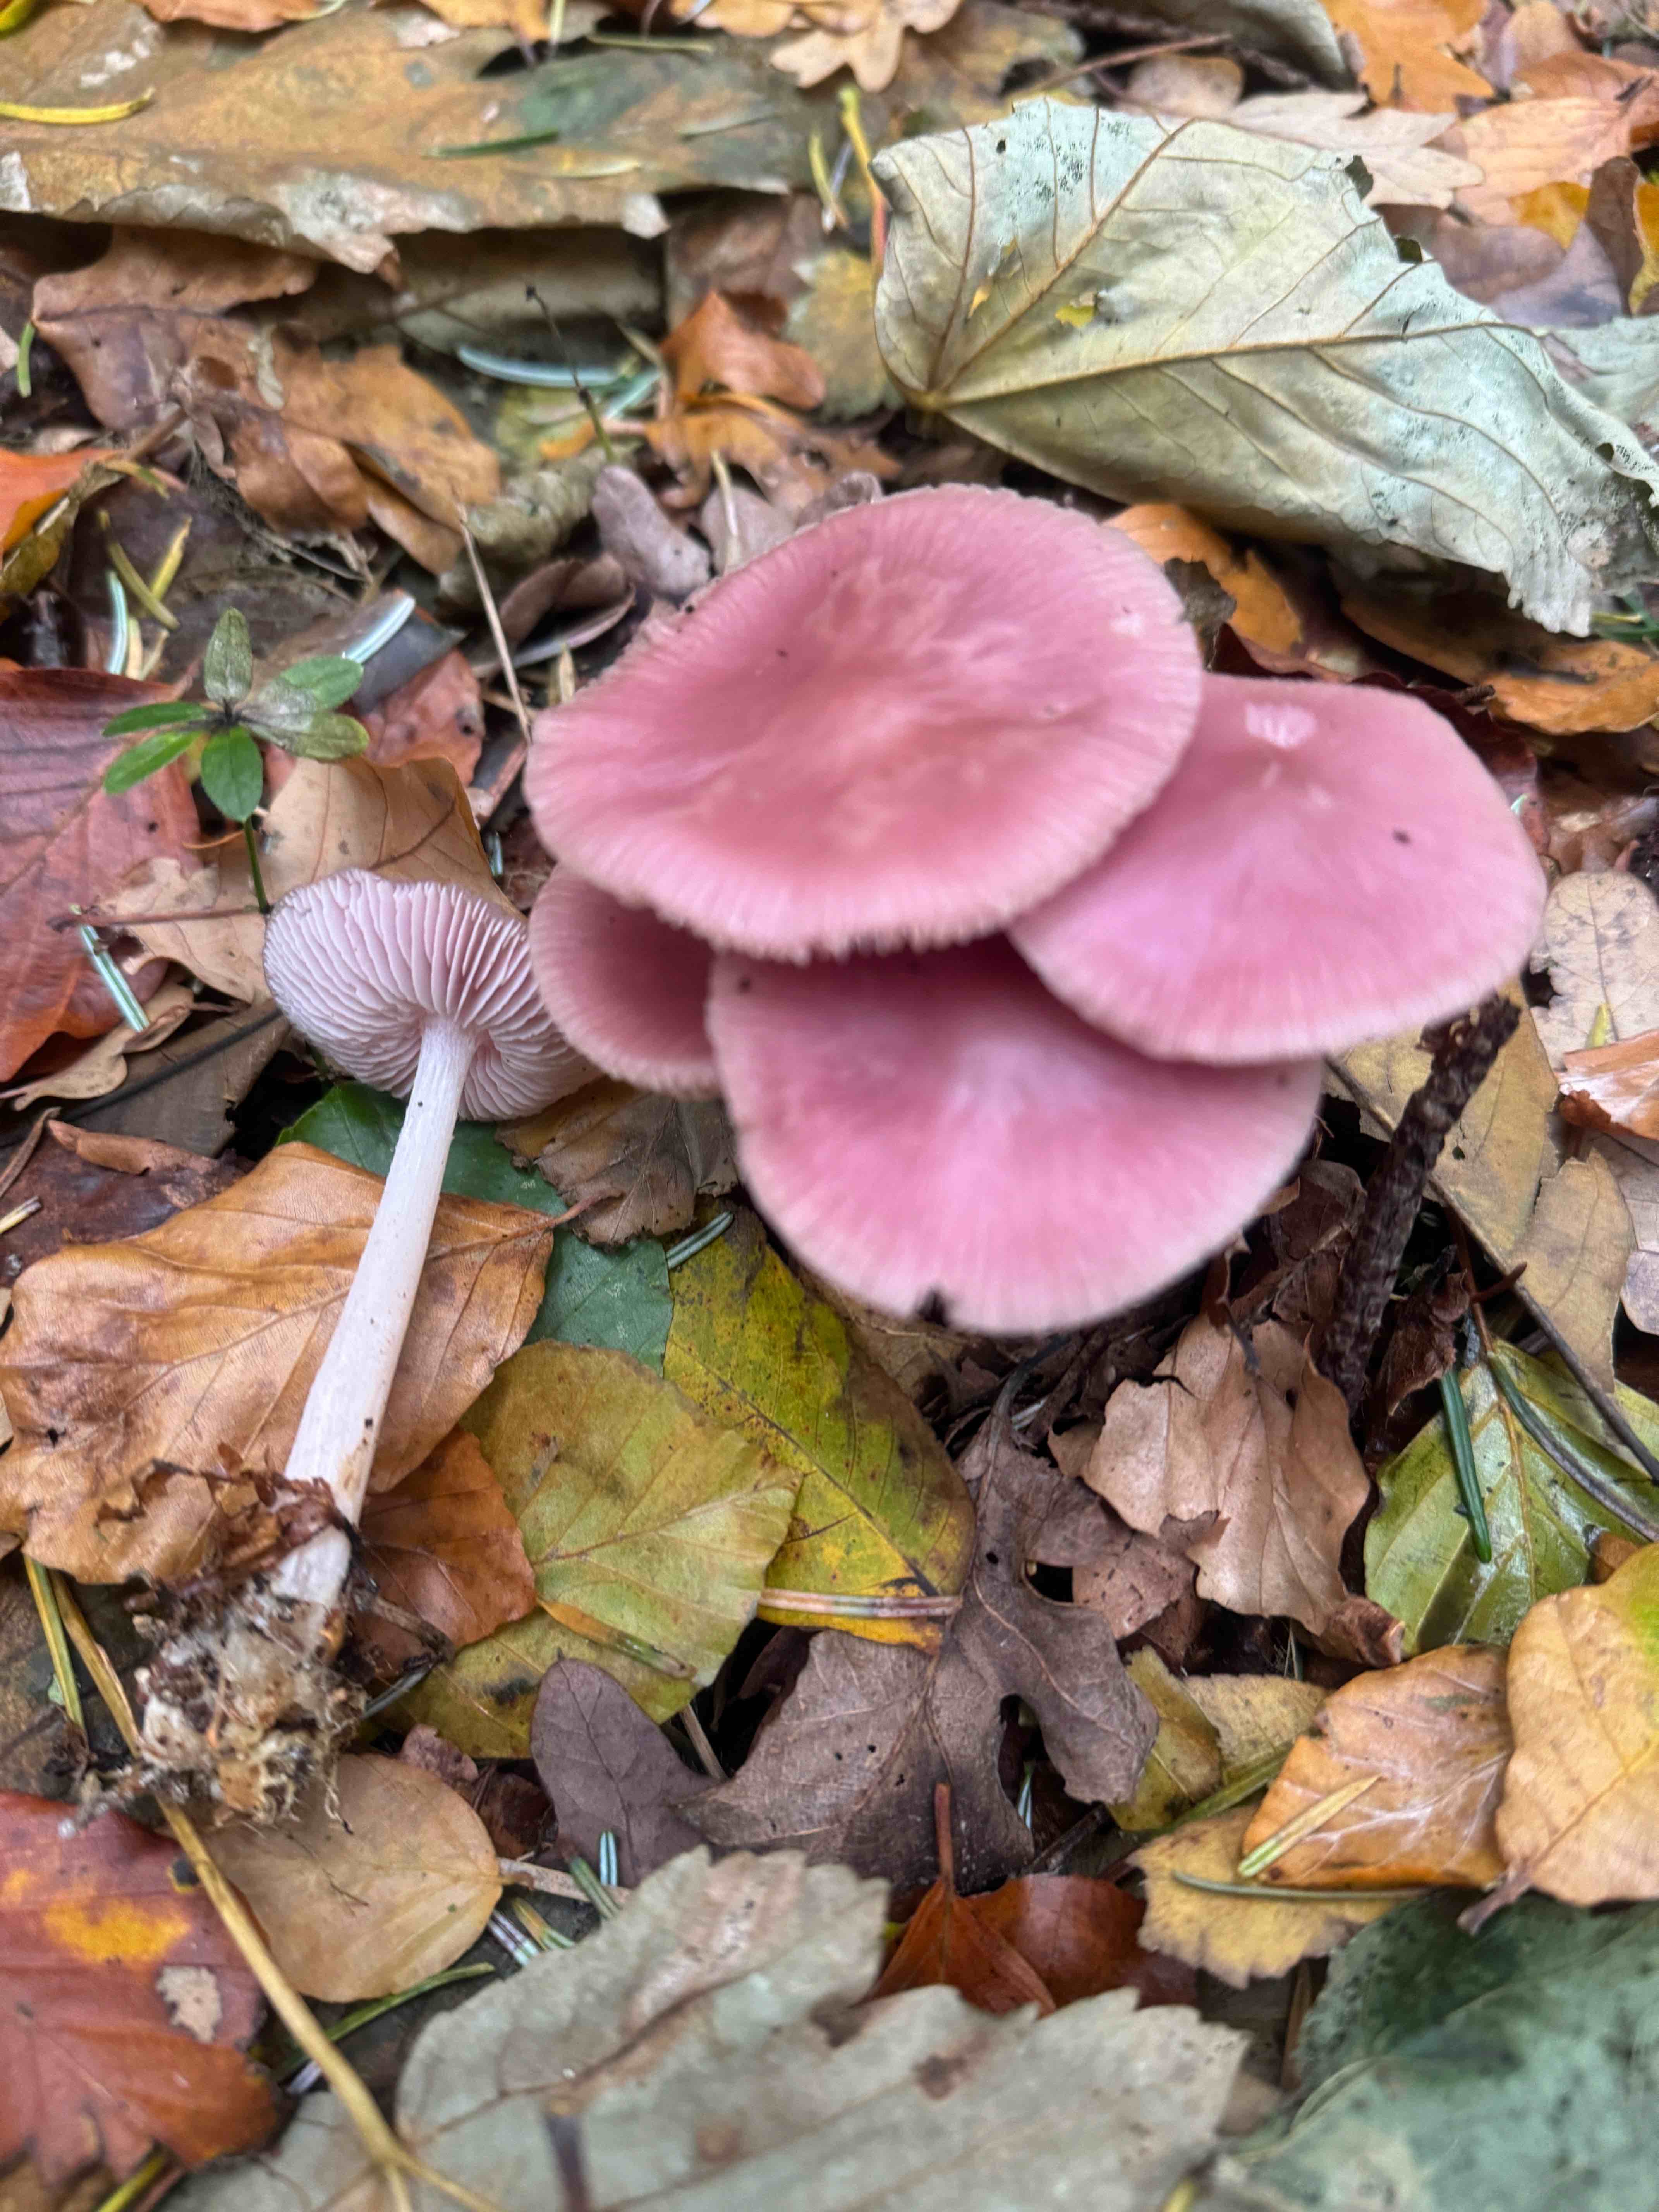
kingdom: Fungi
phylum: Basidiomycota
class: Agaricomycetes
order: Agaricales
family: Mycenaceae
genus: Mycena
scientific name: Mycena rosea
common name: rosa huesvamp
